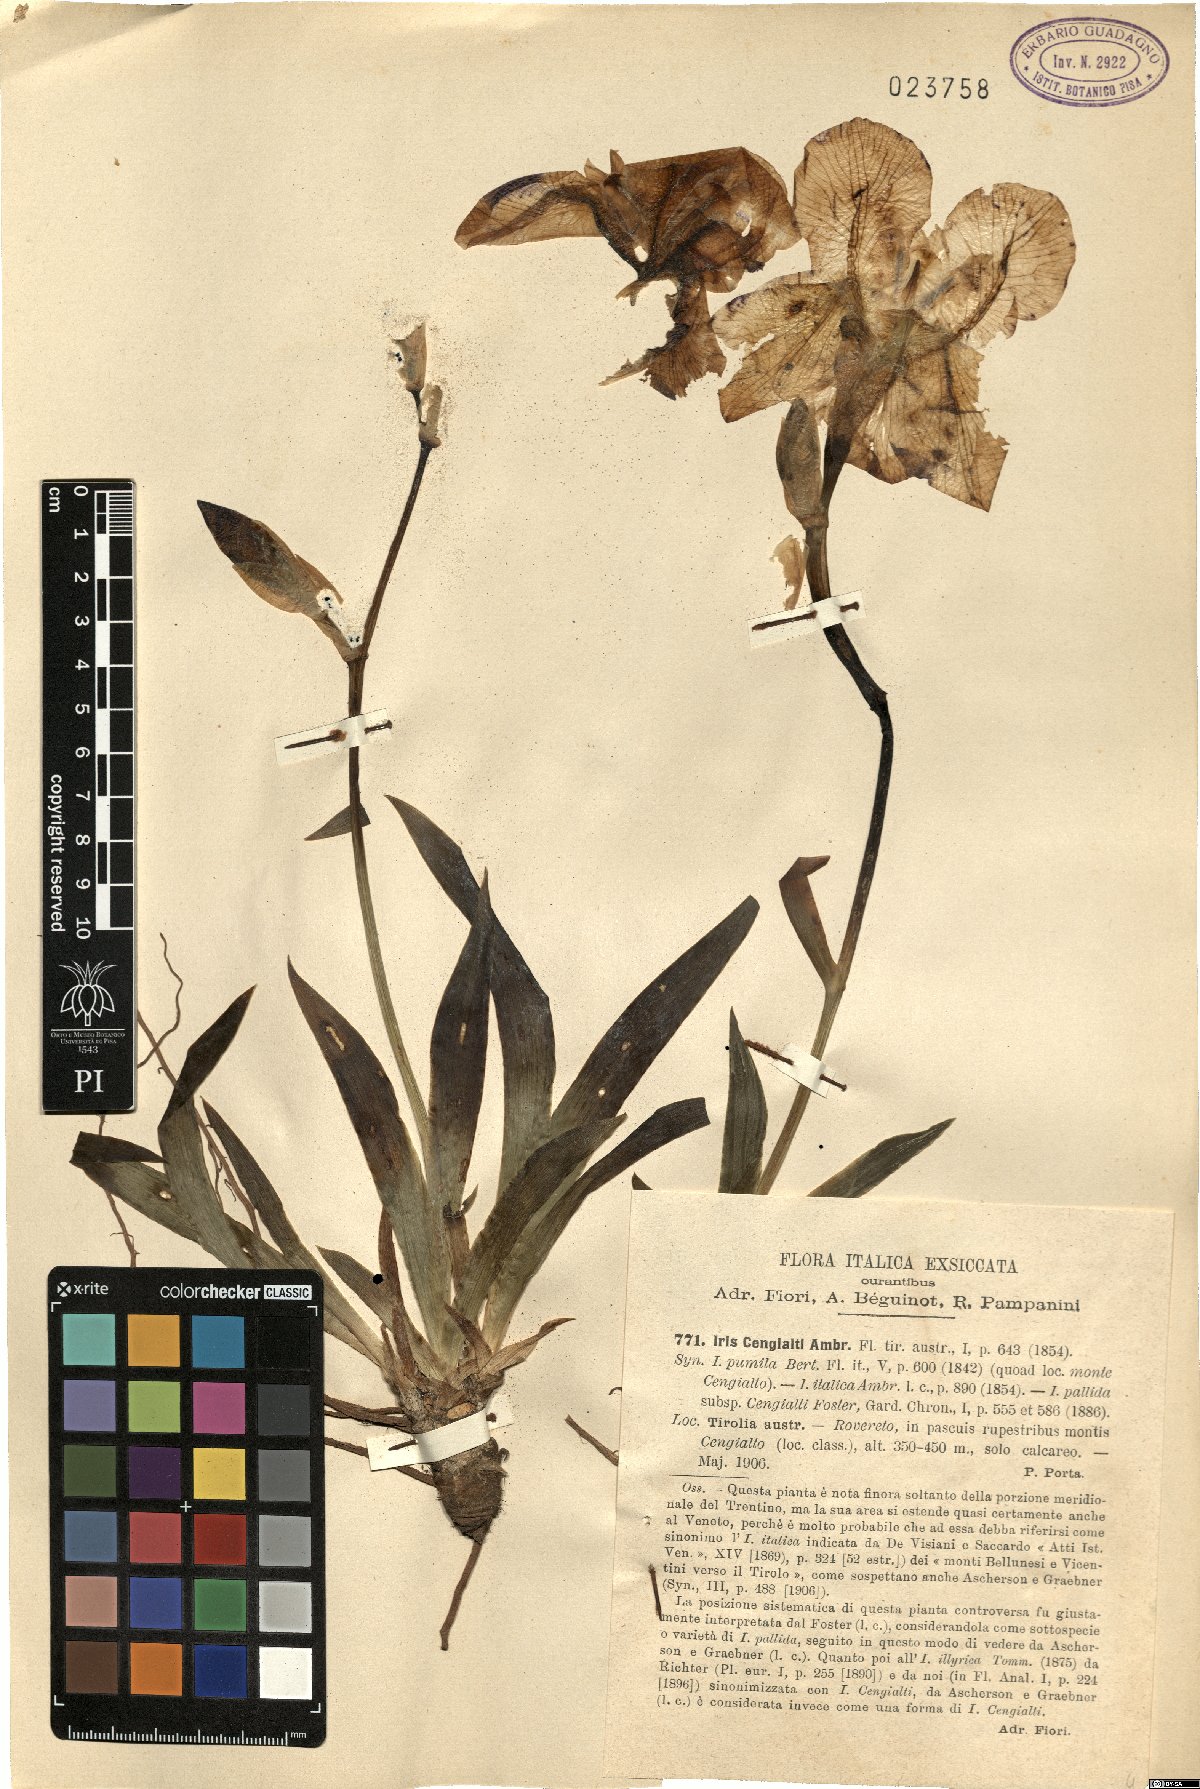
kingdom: Plantae
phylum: Tracheophyta
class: Liliopsida
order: Asparagales
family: Iridaceae
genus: Iris
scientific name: Iris pallida
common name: Sweet iris
